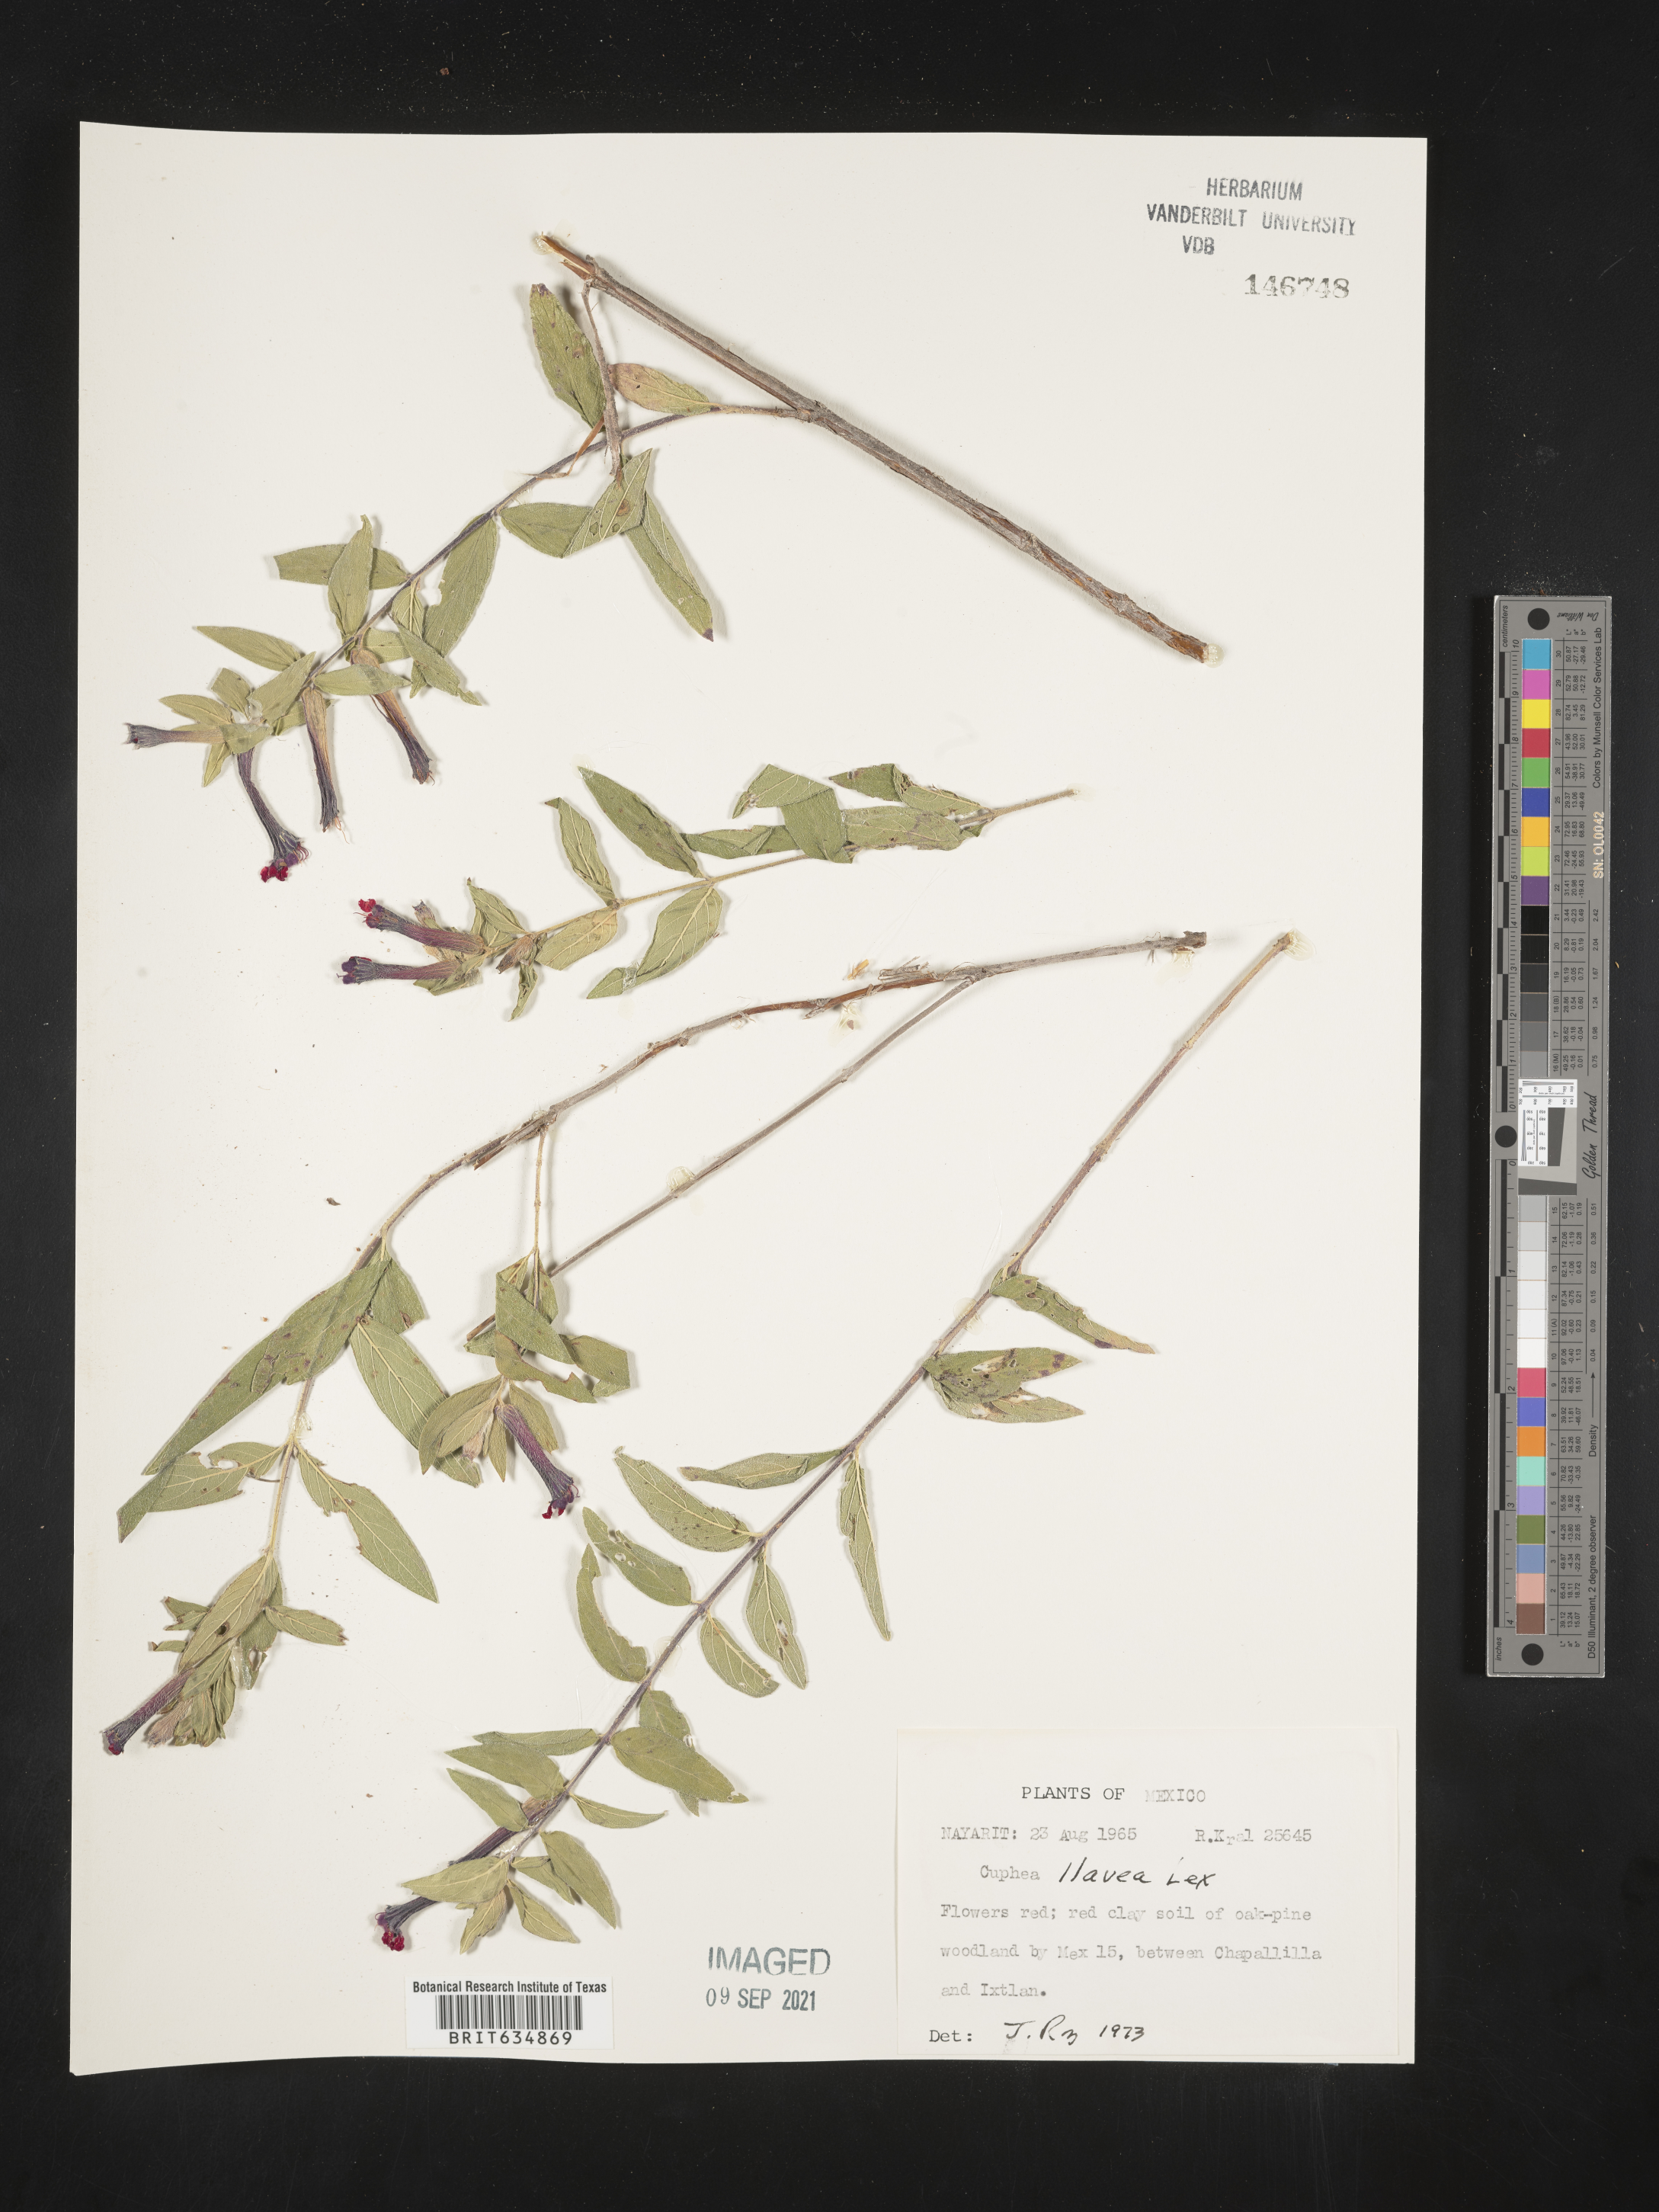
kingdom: Plantae
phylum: Tracheophyta
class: Magnoliopsida
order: Myrtales
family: Lythraceae
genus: Cuphea
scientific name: Cuphea
